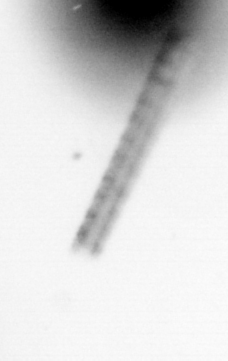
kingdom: Chromista
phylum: Ochrophyta
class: Bacillariophyceae
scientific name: Bacillariophyceae
